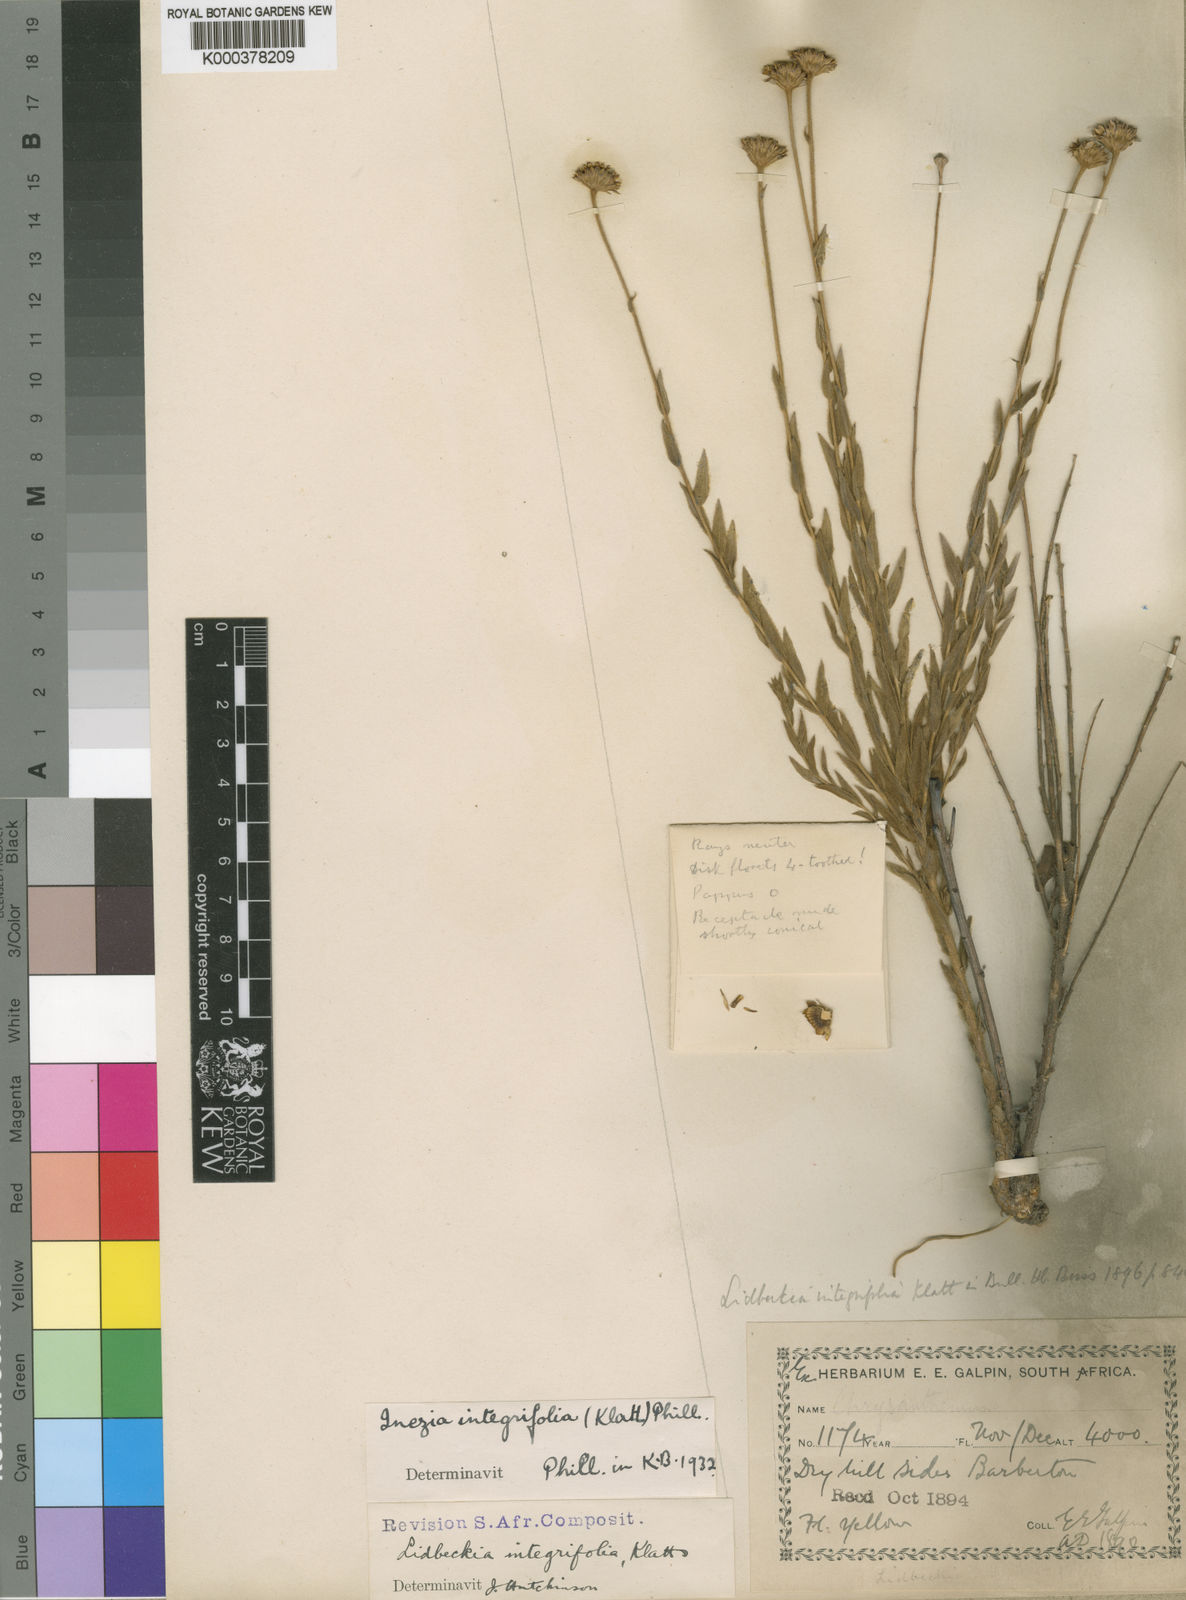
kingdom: Plantae
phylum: Tracheophyta
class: Magnoliopsida
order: Asterales
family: Asteraceae
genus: Inezia
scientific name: Inezia integrifolia
